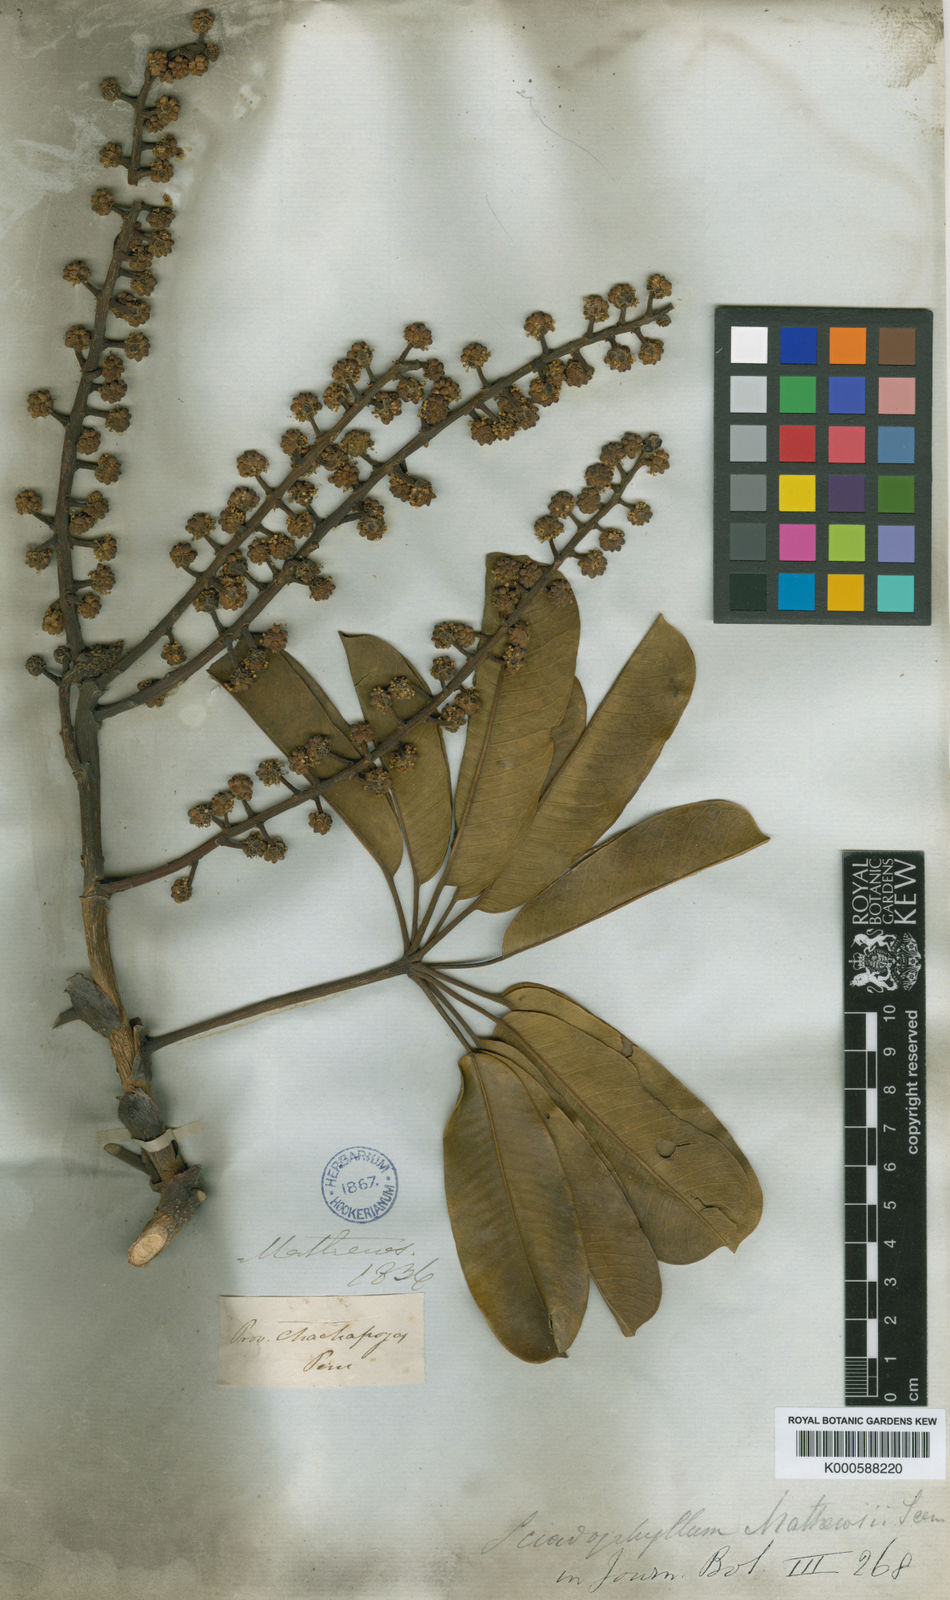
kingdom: Plantae
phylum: Tracheophyta
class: Magnoliopsida
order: Apiales
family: Araliaceae
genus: Sciodaphyllum
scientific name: Sciodaphyllum matthewsii
